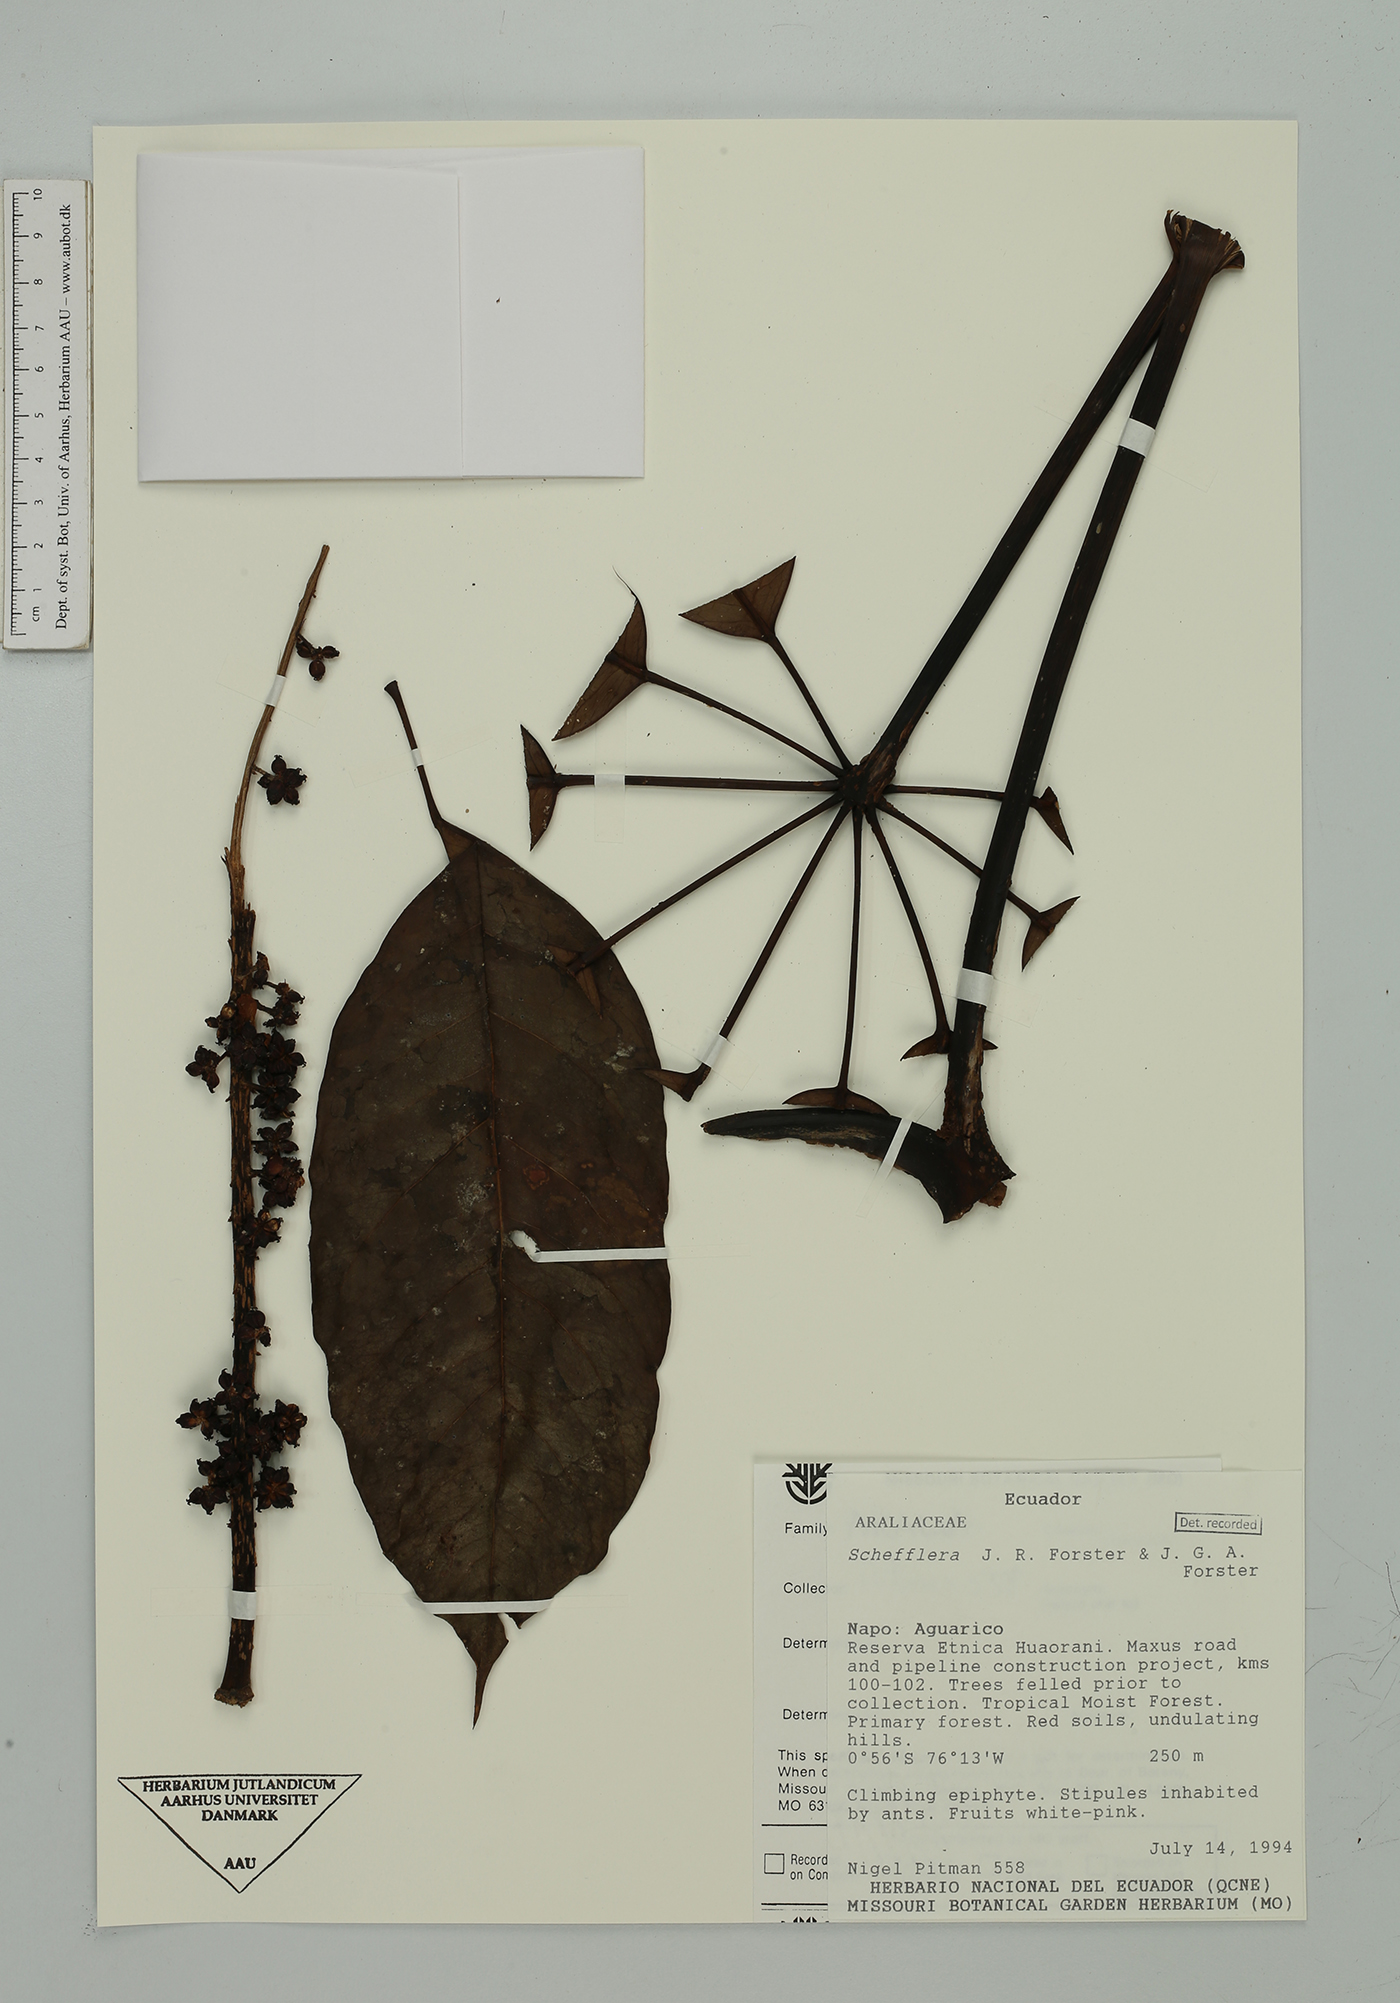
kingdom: Plantae
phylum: Tracheophyta
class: Magnoliopsida
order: Apiales
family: Araliaceae
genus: Sciodaphyllum
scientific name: Sciodaphyllum sprucei
